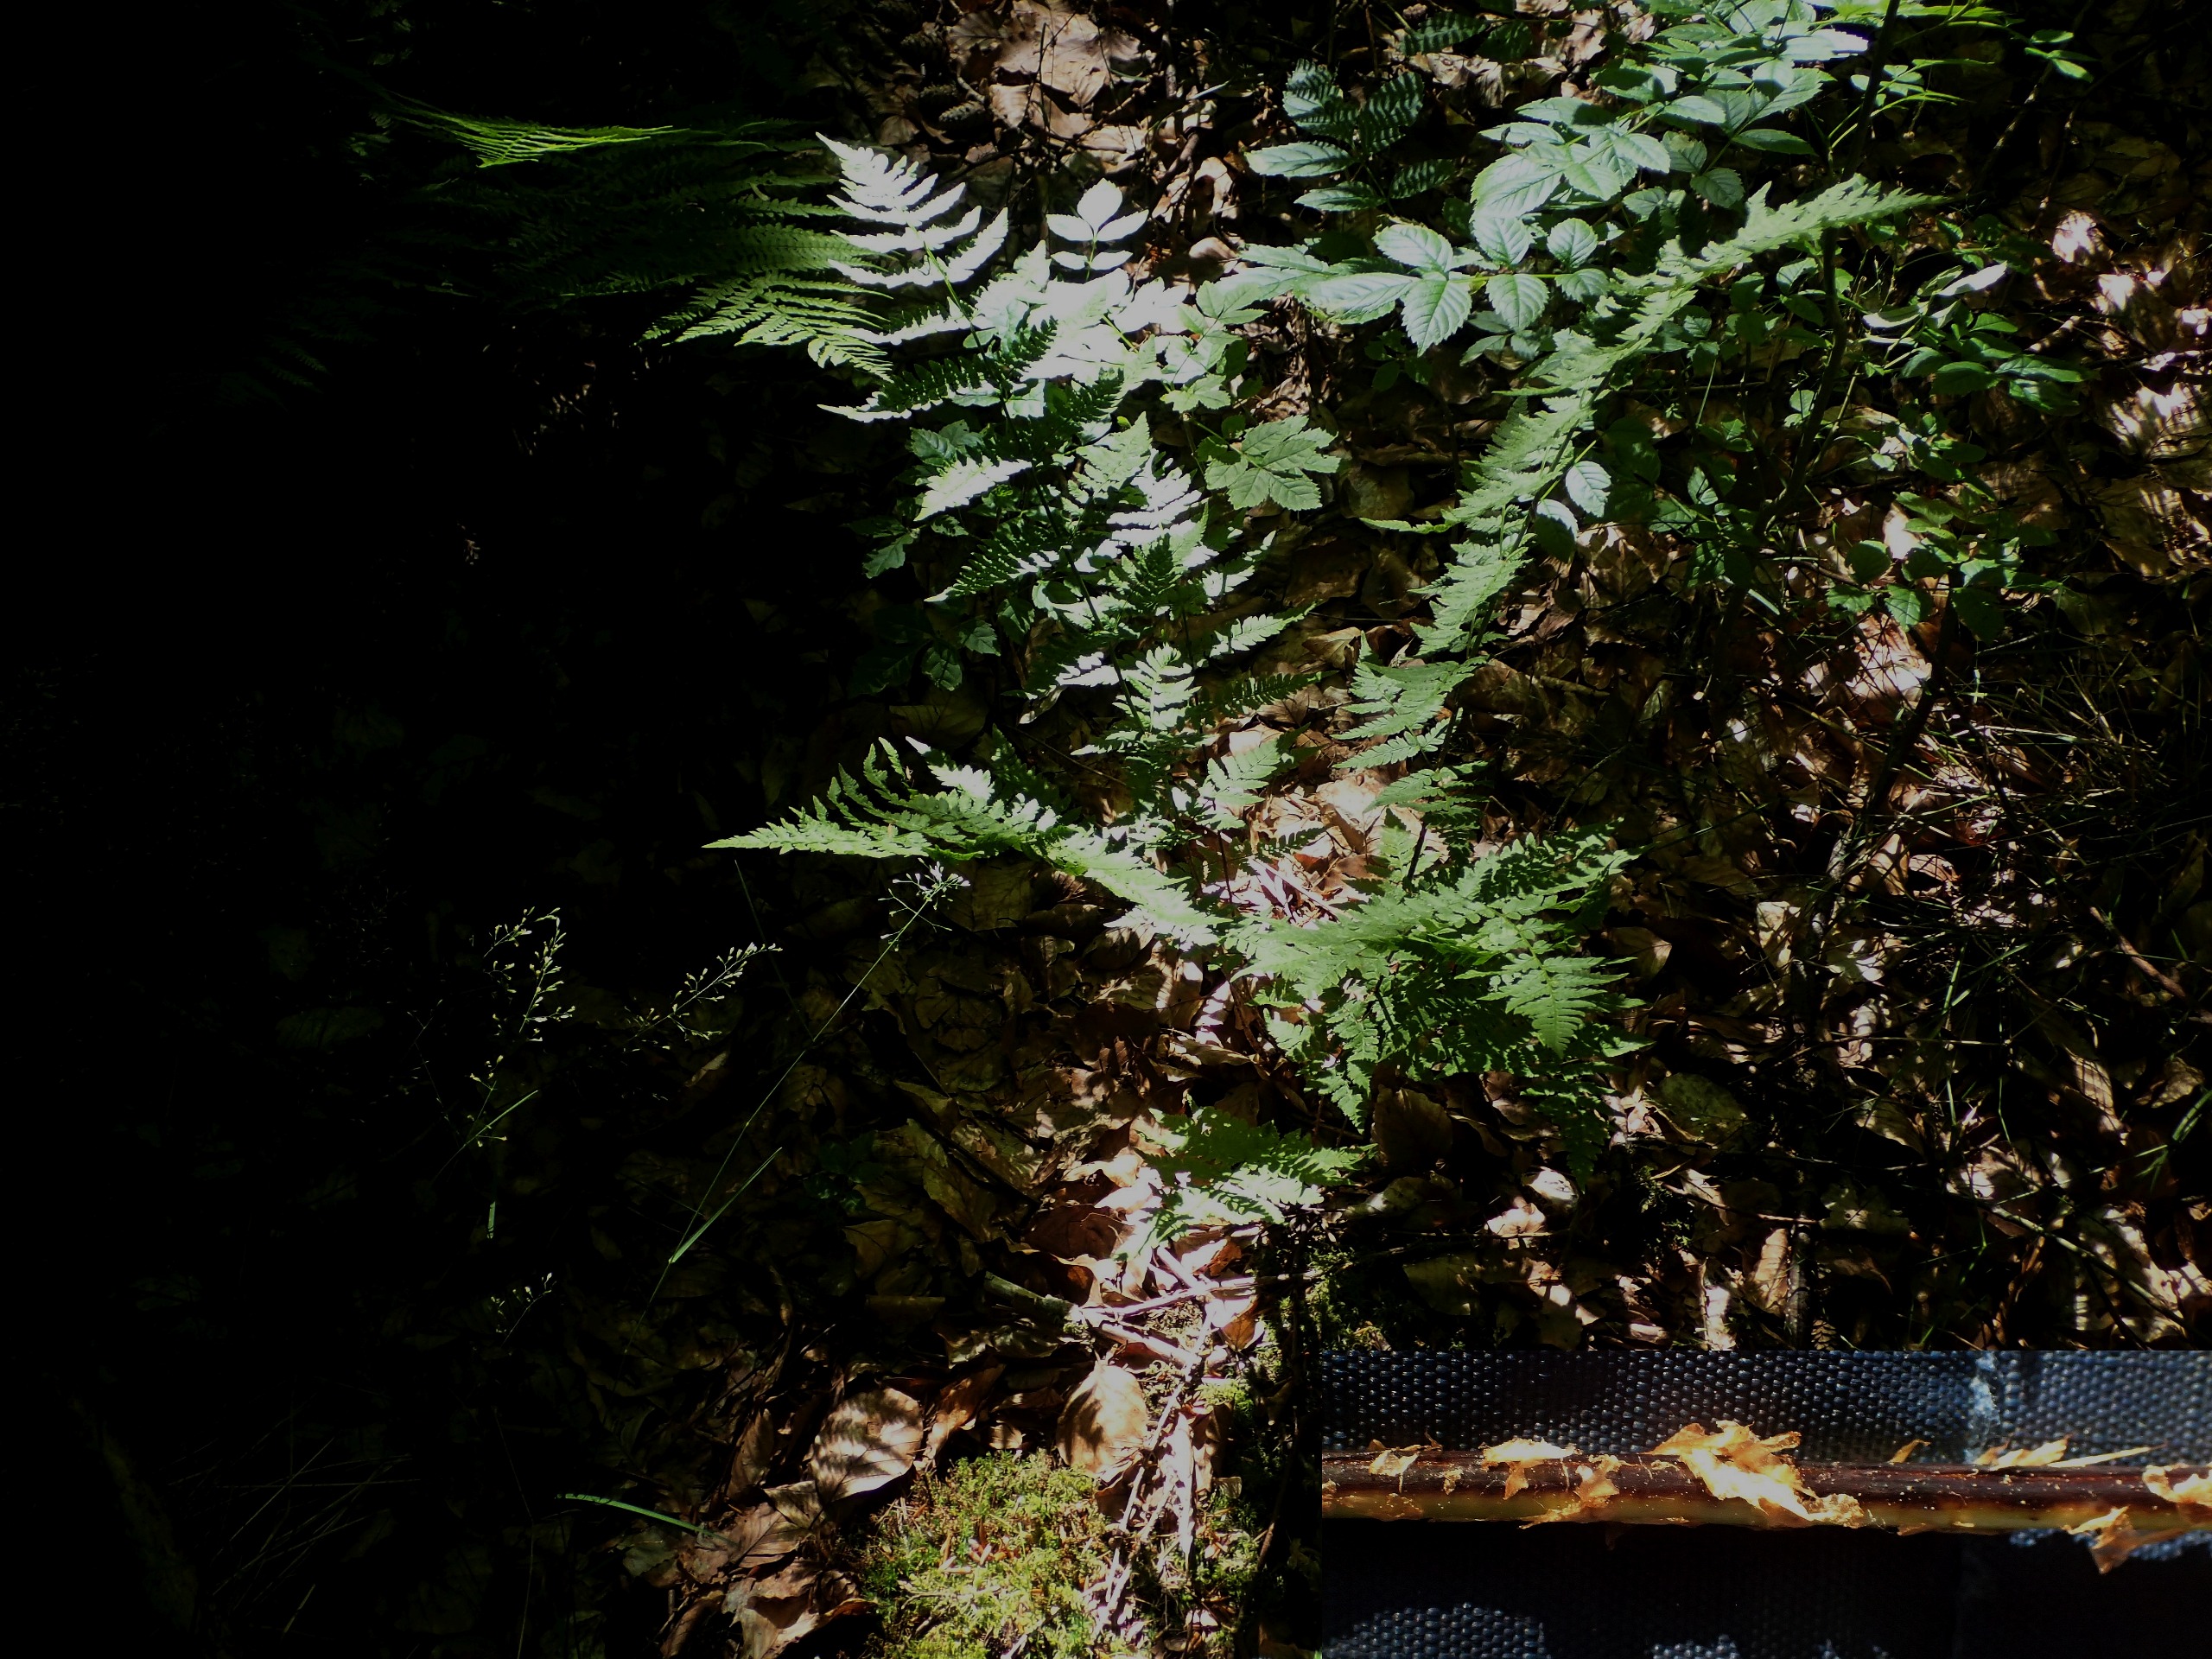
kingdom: Plantae
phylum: Tracheophyta
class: Polypodiopsida
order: Polypodiales
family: Dryopteridaceae
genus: Dryopteris
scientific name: Dryopteris carthusiana
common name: Smalbladet mangeløv
